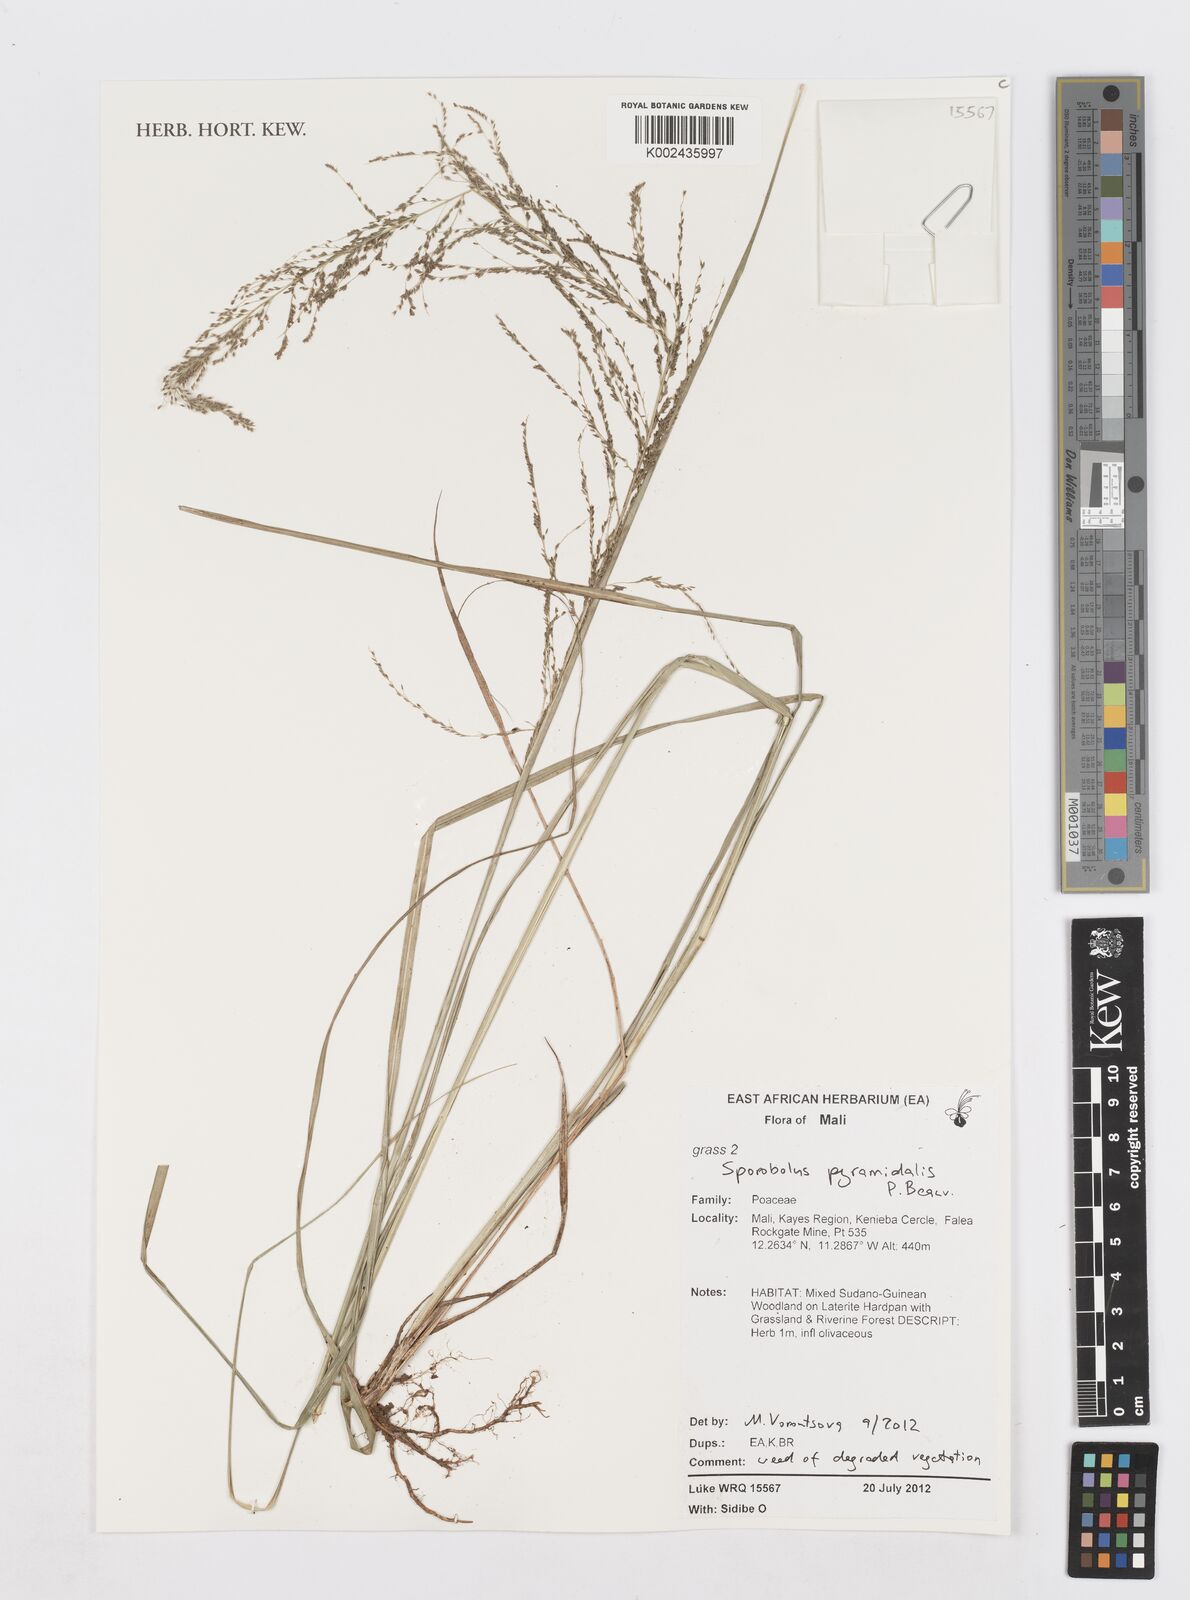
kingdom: Plantae
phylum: Tracheophyta
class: Liliopsida
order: Poales
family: Poaceae
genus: Sporobolus
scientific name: Sporobolus pyramidalis
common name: West indian dropseed
